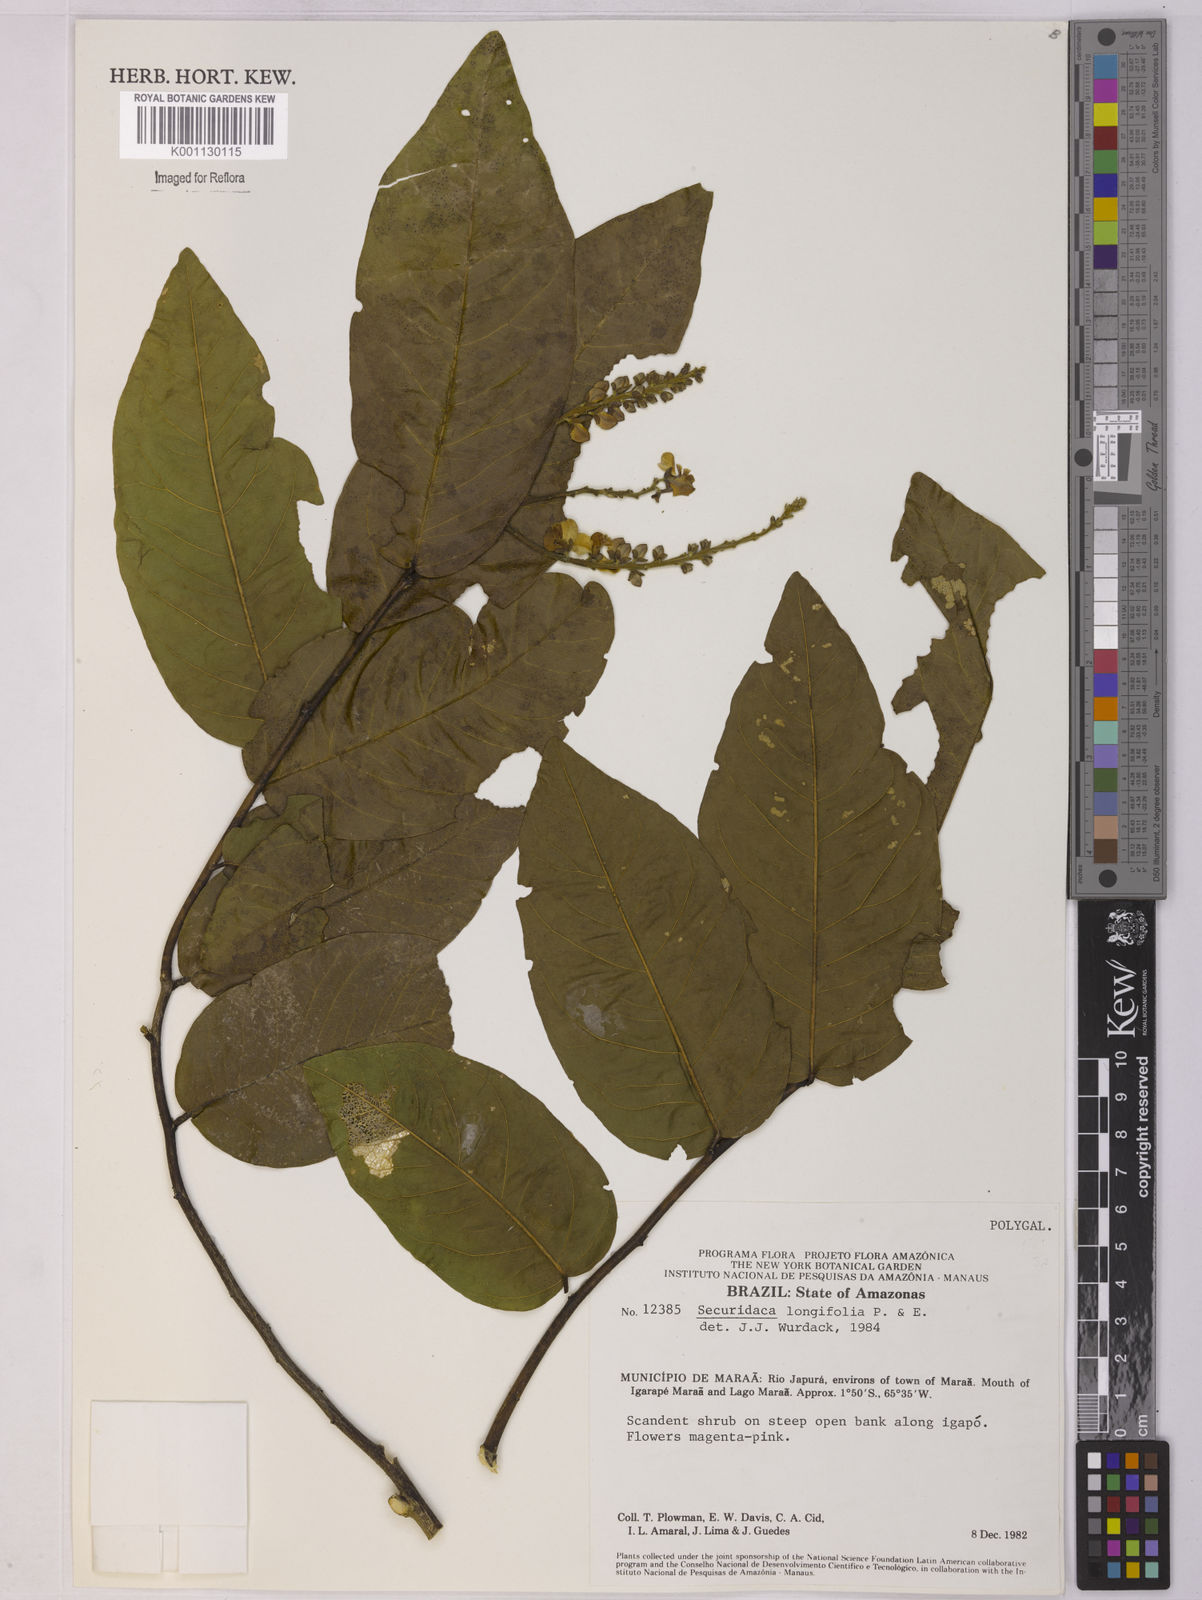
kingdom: Plantae
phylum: Tracheophyta
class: Magnoliopsida
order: Fabales
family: Polygalaceae
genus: Securidaca
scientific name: Securidaca longifolia
